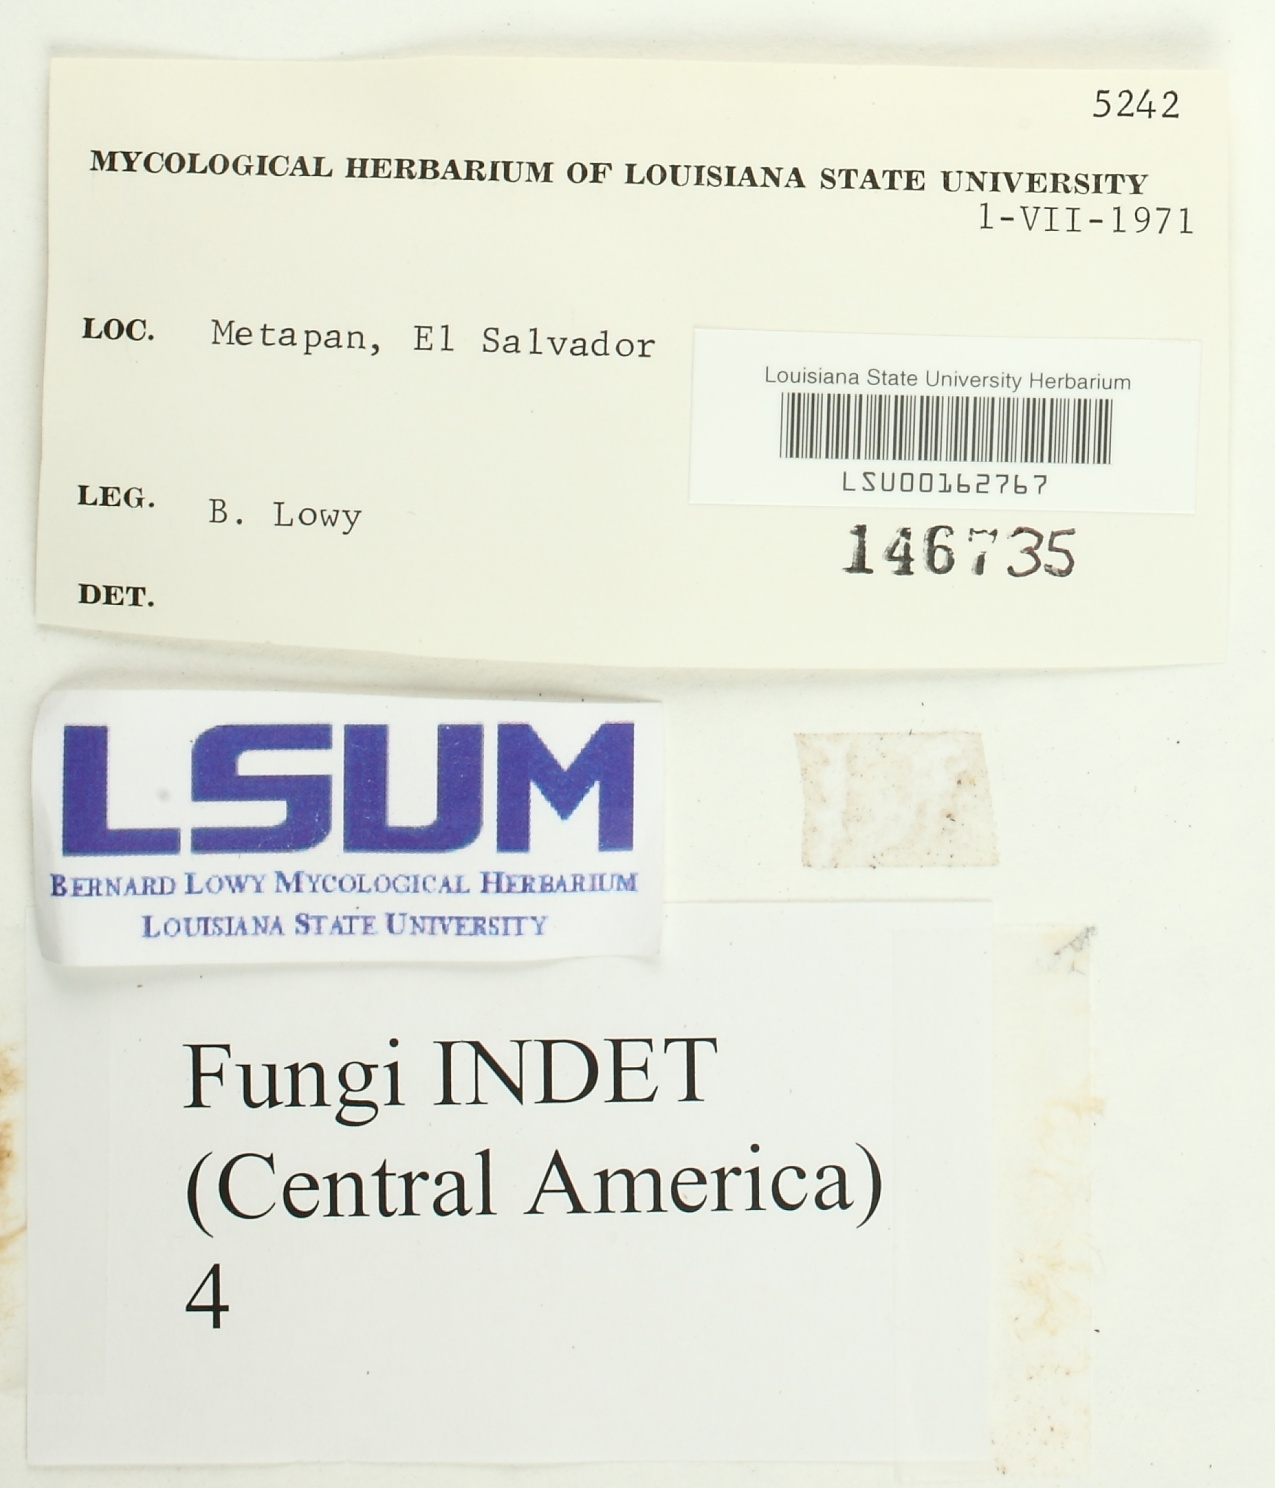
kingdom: Fungi
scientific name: Fungi
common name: Fungi
